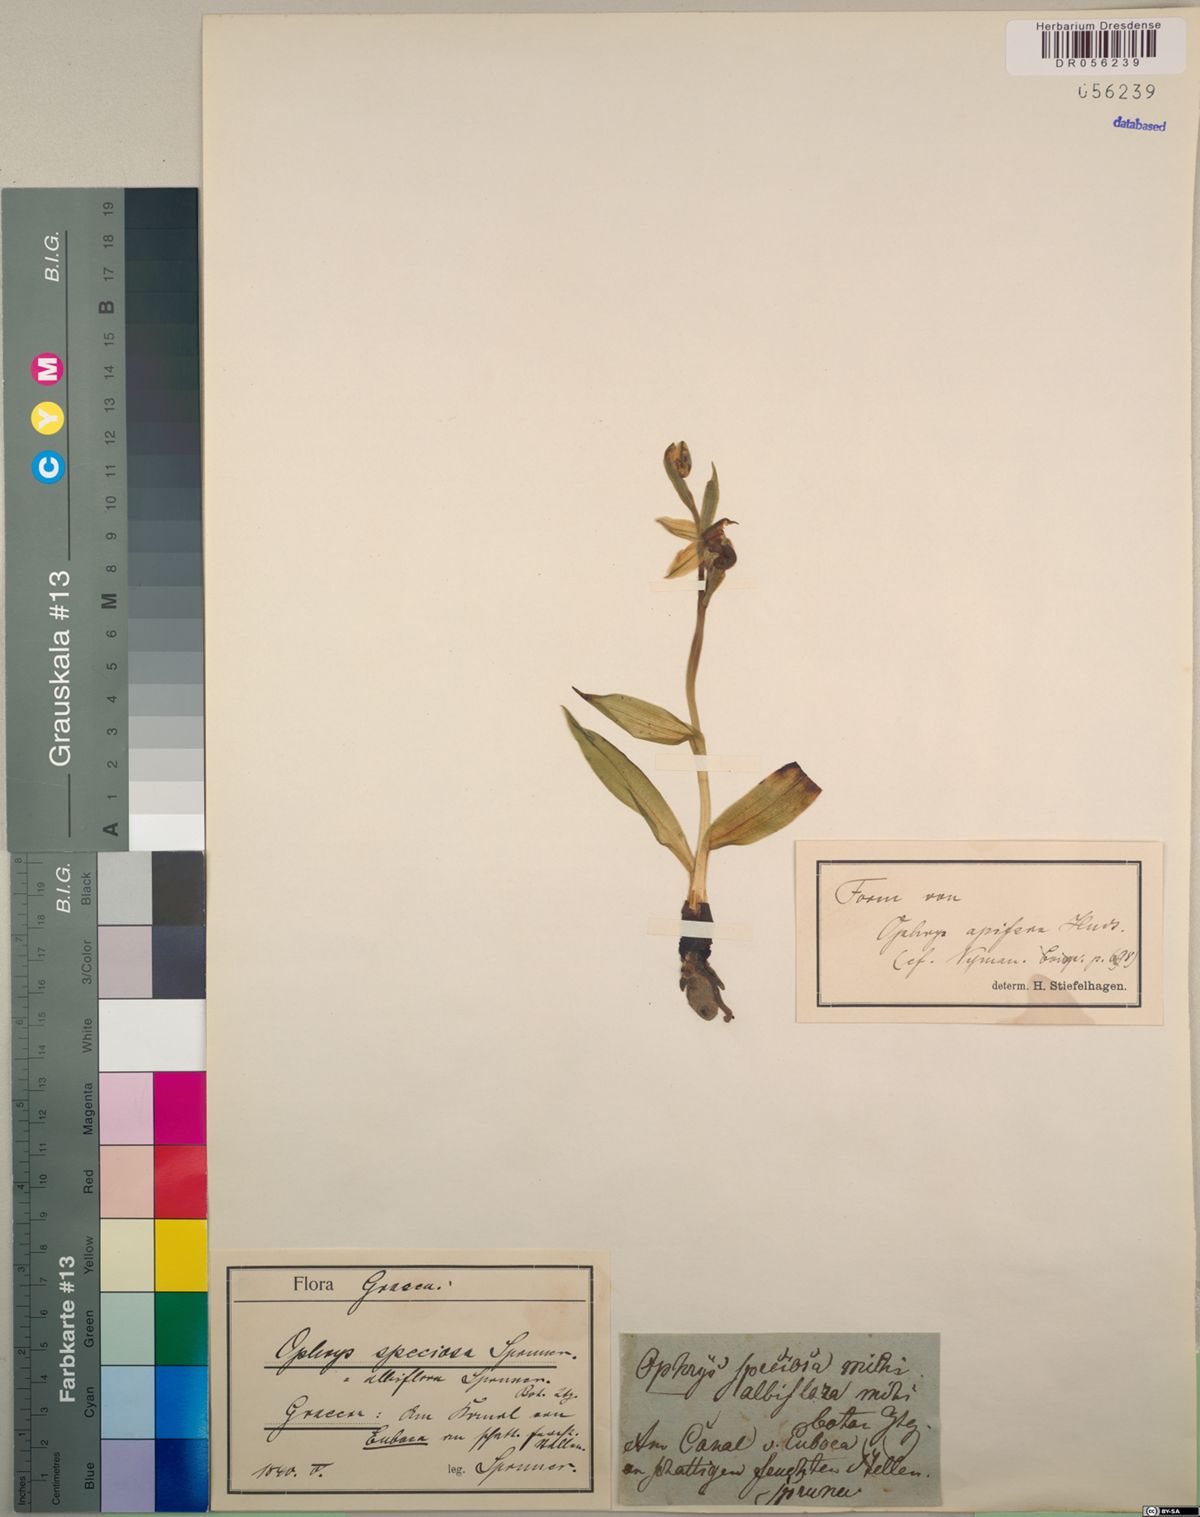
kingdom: Plantae
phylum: Tracheophyta
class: Liliopsida
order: Asparagales
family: Orchidaceae
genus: Ophrys
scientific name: Ophrys apifera
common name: Bee orchid
